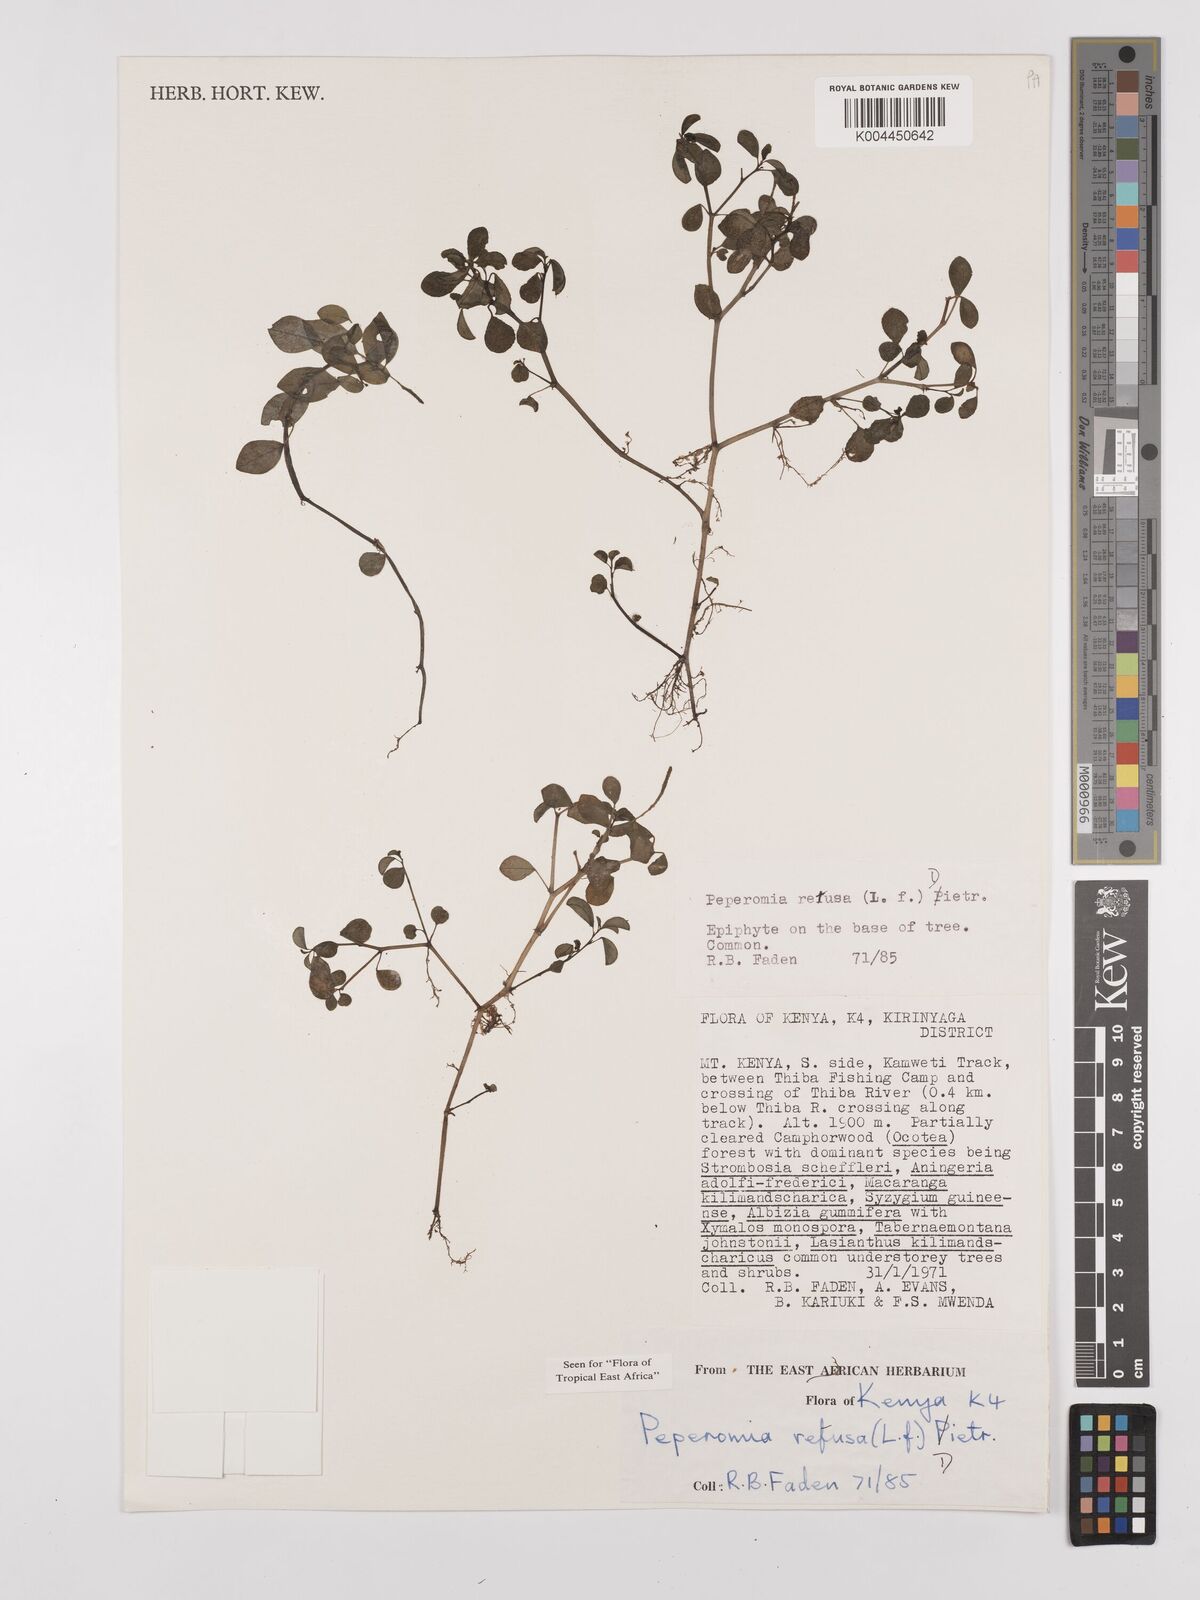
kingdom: Plantae
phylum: Tracheophyta
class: Magnoliopsida
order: Piperales
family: Piperaceae
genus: Peperomia
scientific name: Peperomia retusa
